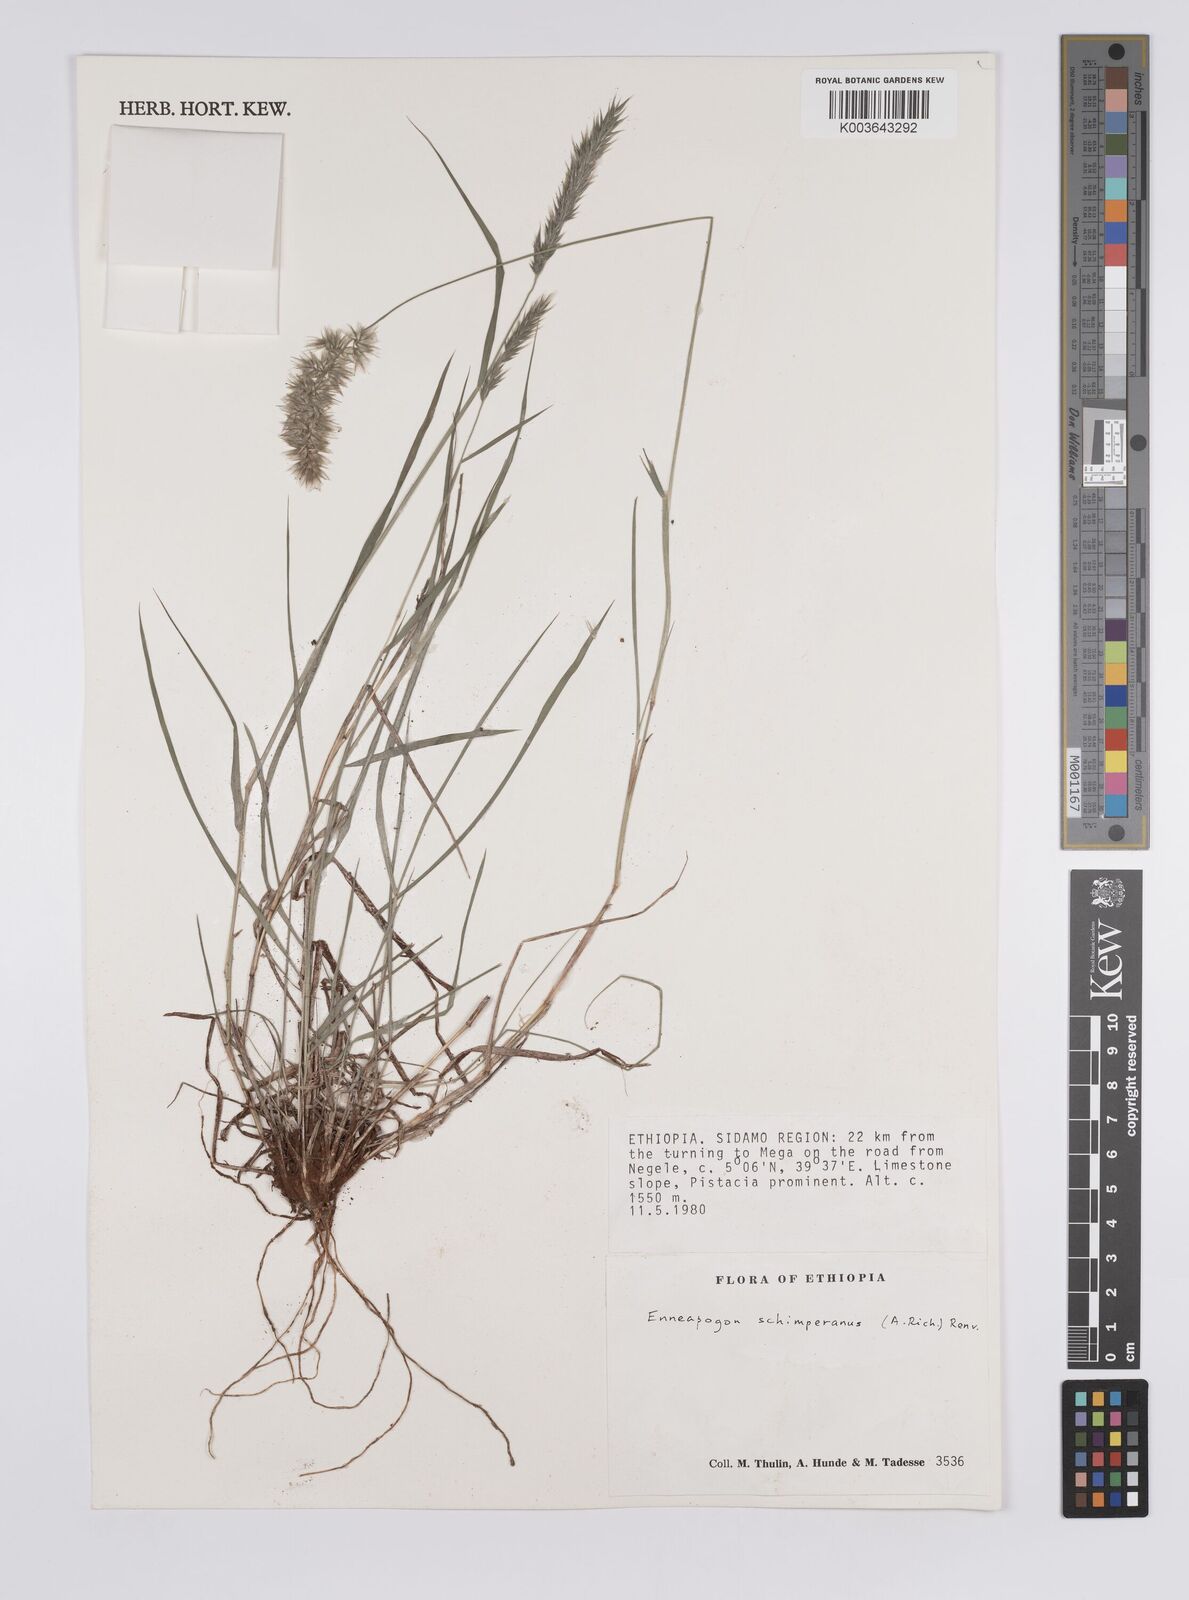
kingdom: Plantae
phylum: Tracheophyta
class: Liliopsida
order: Poales
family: Poaceae
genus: Enneapogon
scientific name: Enneapogon persicus
